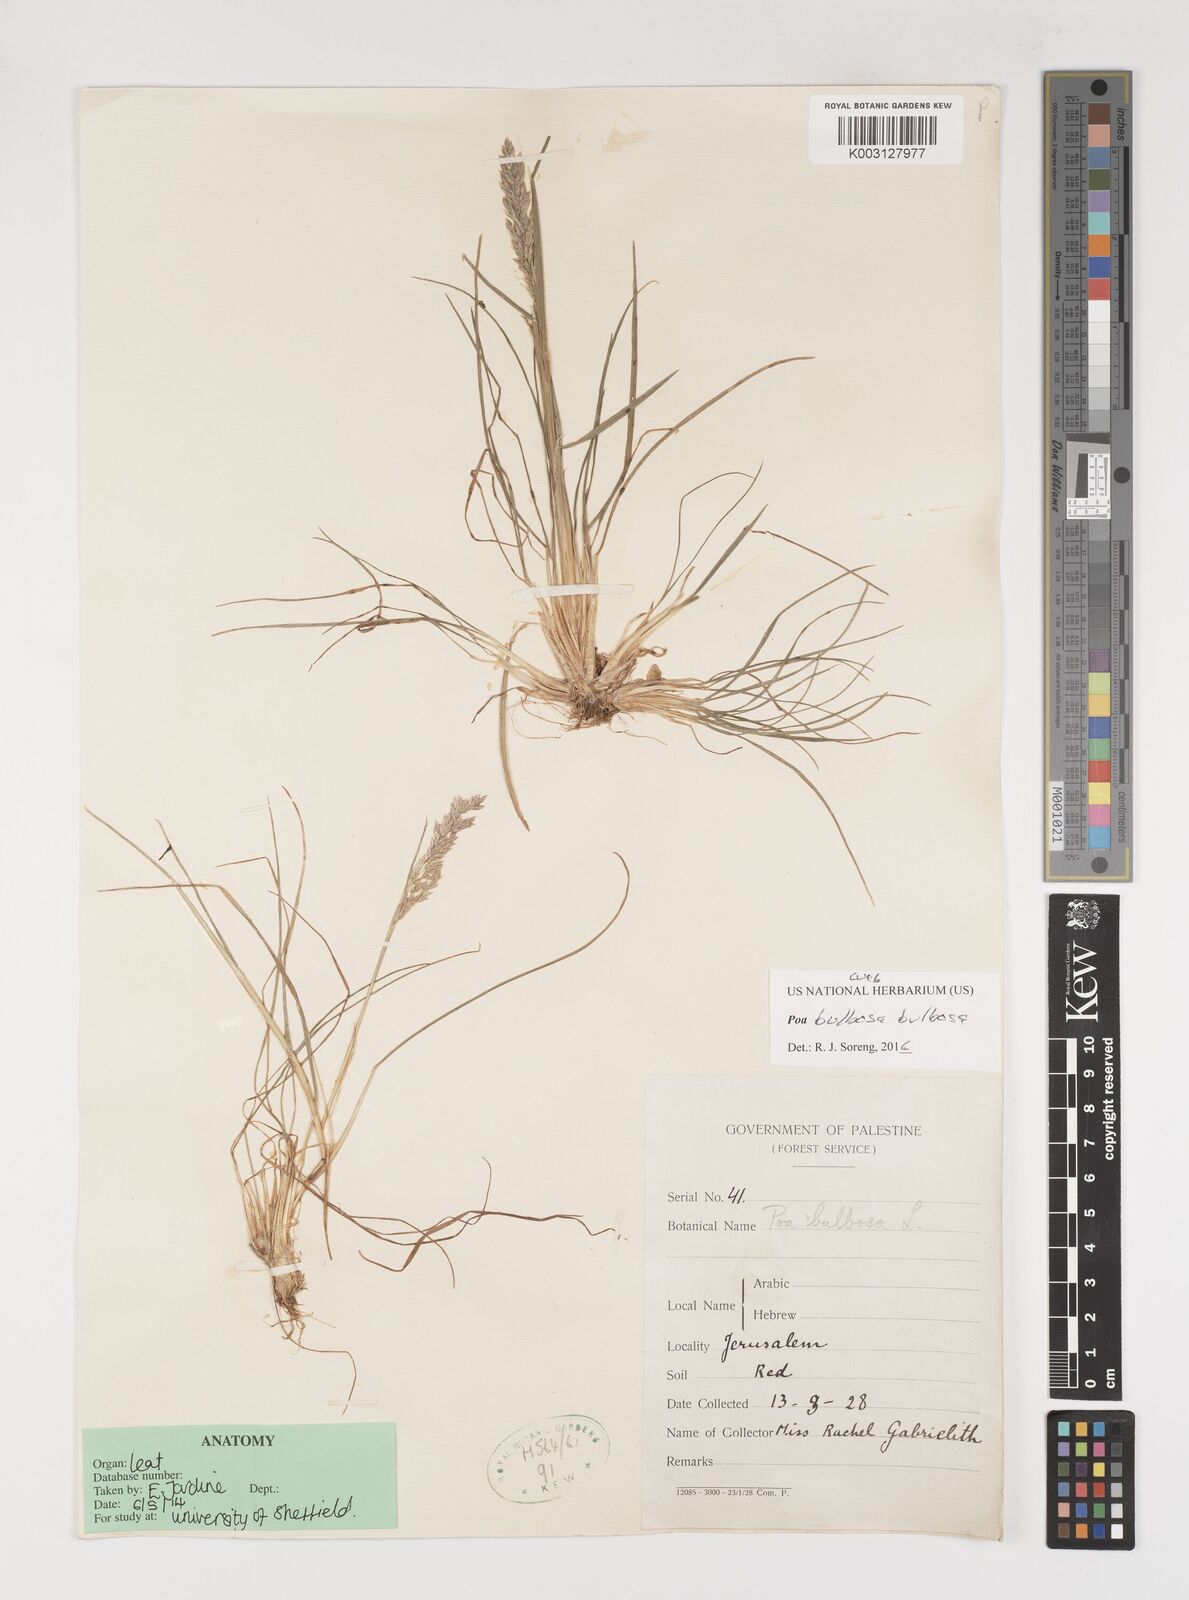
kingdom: Plantae
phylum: Tracheophyta
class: Liliopsida
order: Poales
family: Poaceae
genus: Poa
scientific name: Poa bulbosa
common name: Bulbous bluegrass
